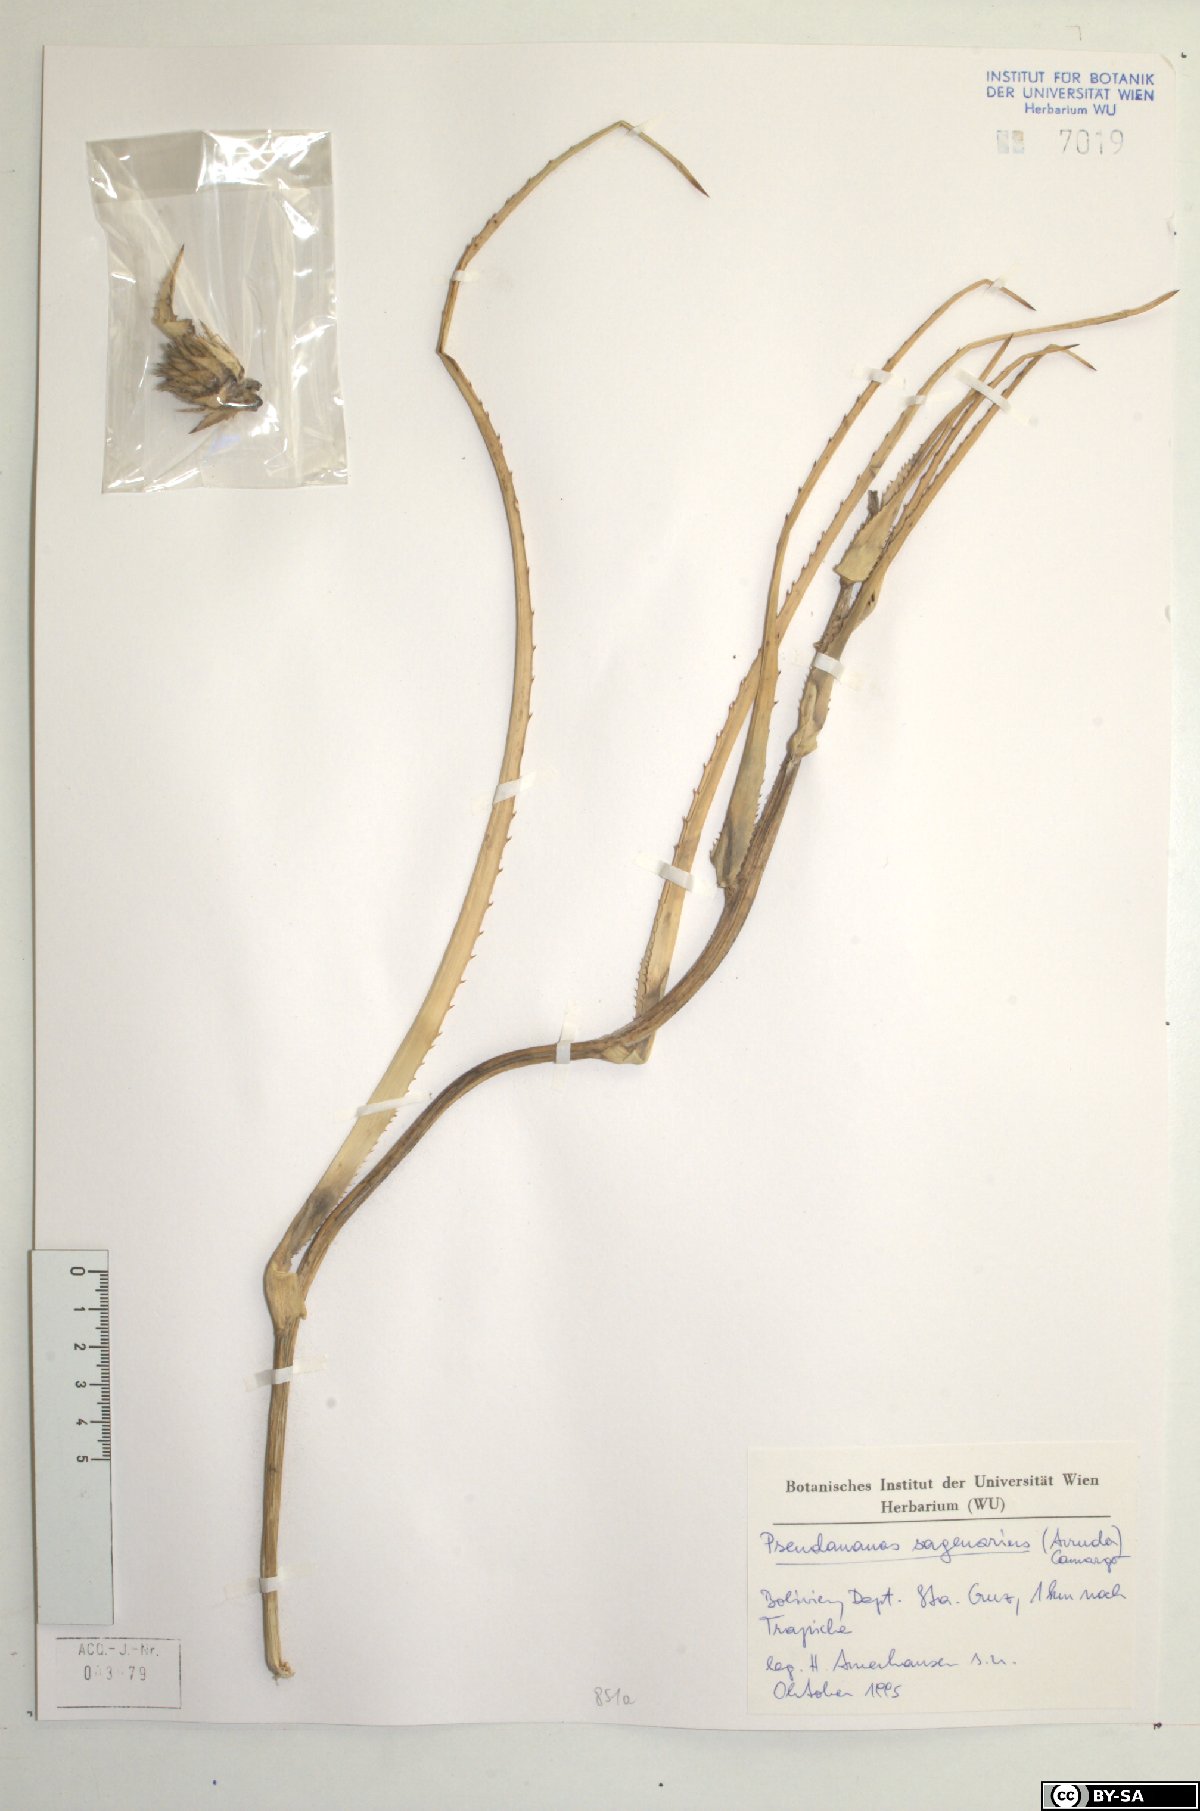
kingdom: Plantae
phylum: Tracheophyta
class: Liliopsida
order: Poales
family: Bromeliaceae
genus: Ananas
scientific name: Ananas comosus
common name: Pineapple
